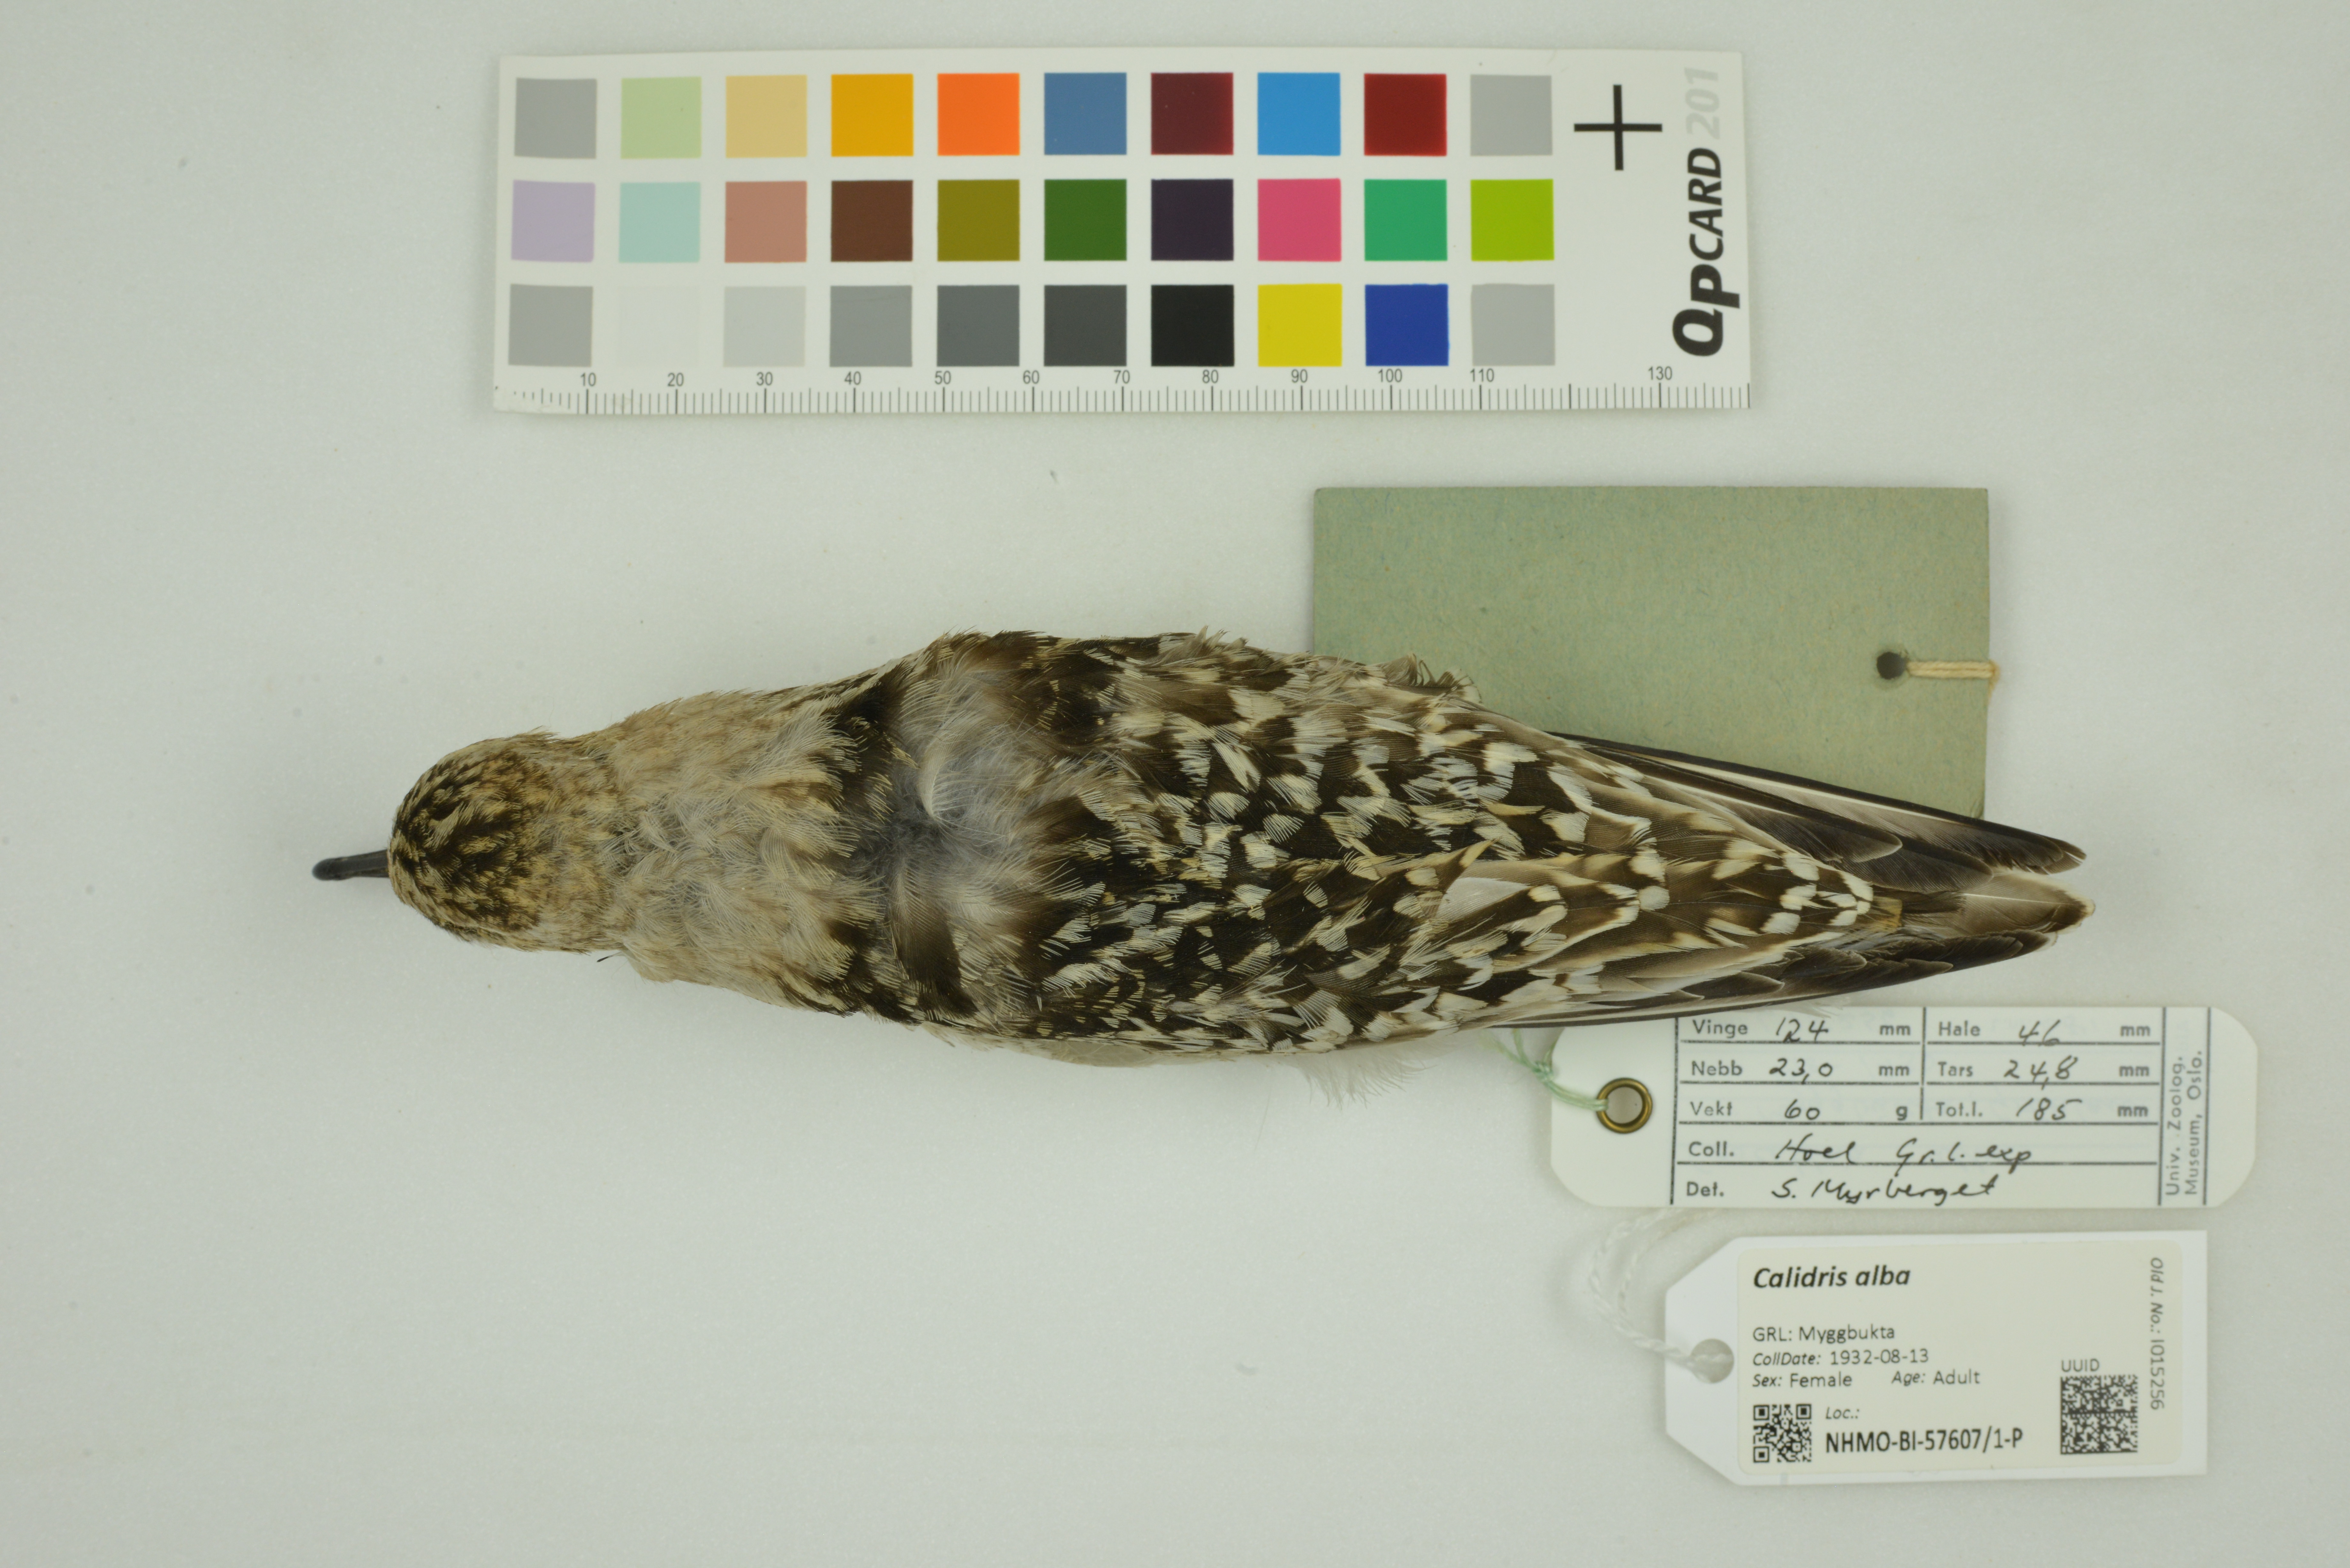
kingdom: Animalia
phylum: Chordata
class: Aves
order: Charadriiformes
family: Scolopacidae
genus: Calidris
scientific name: Calidris alba
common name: Sanderling
